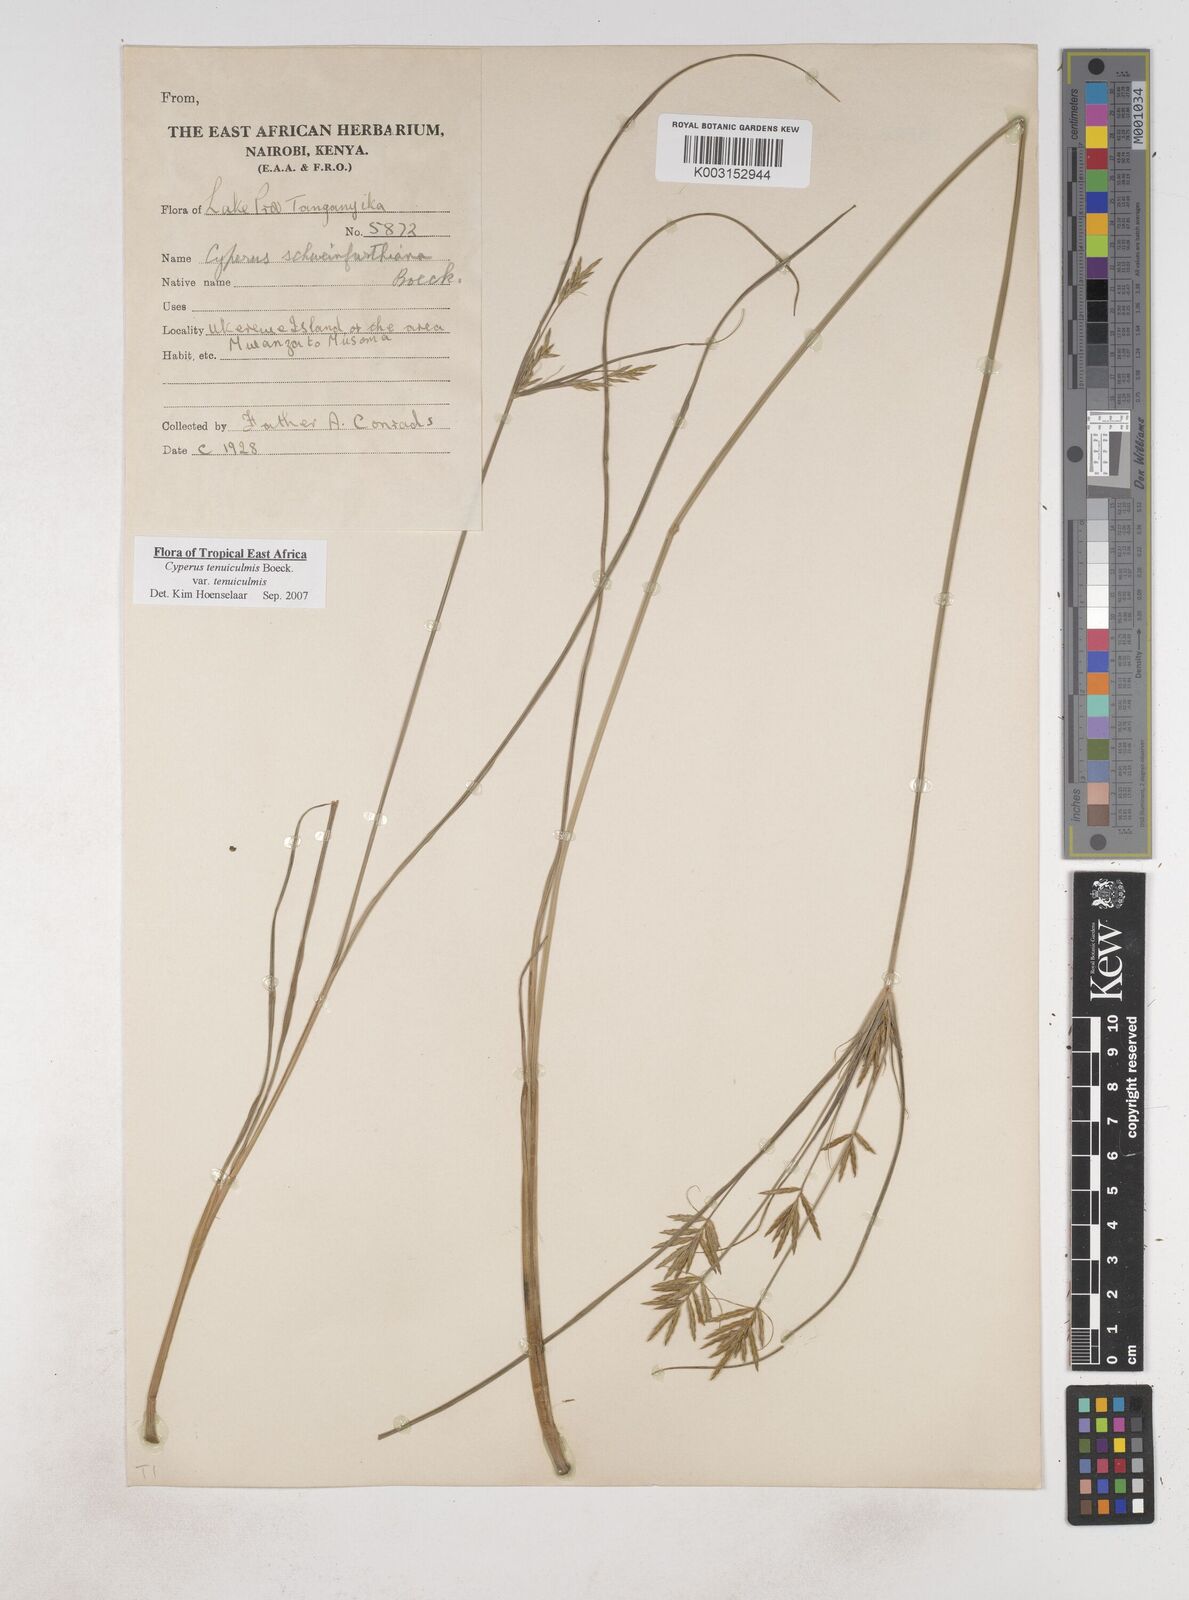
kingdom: Plantae
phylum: Tracheophyta
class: Liliopsida
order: Poales
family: Cyperaceae
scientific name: Cyperaceae
